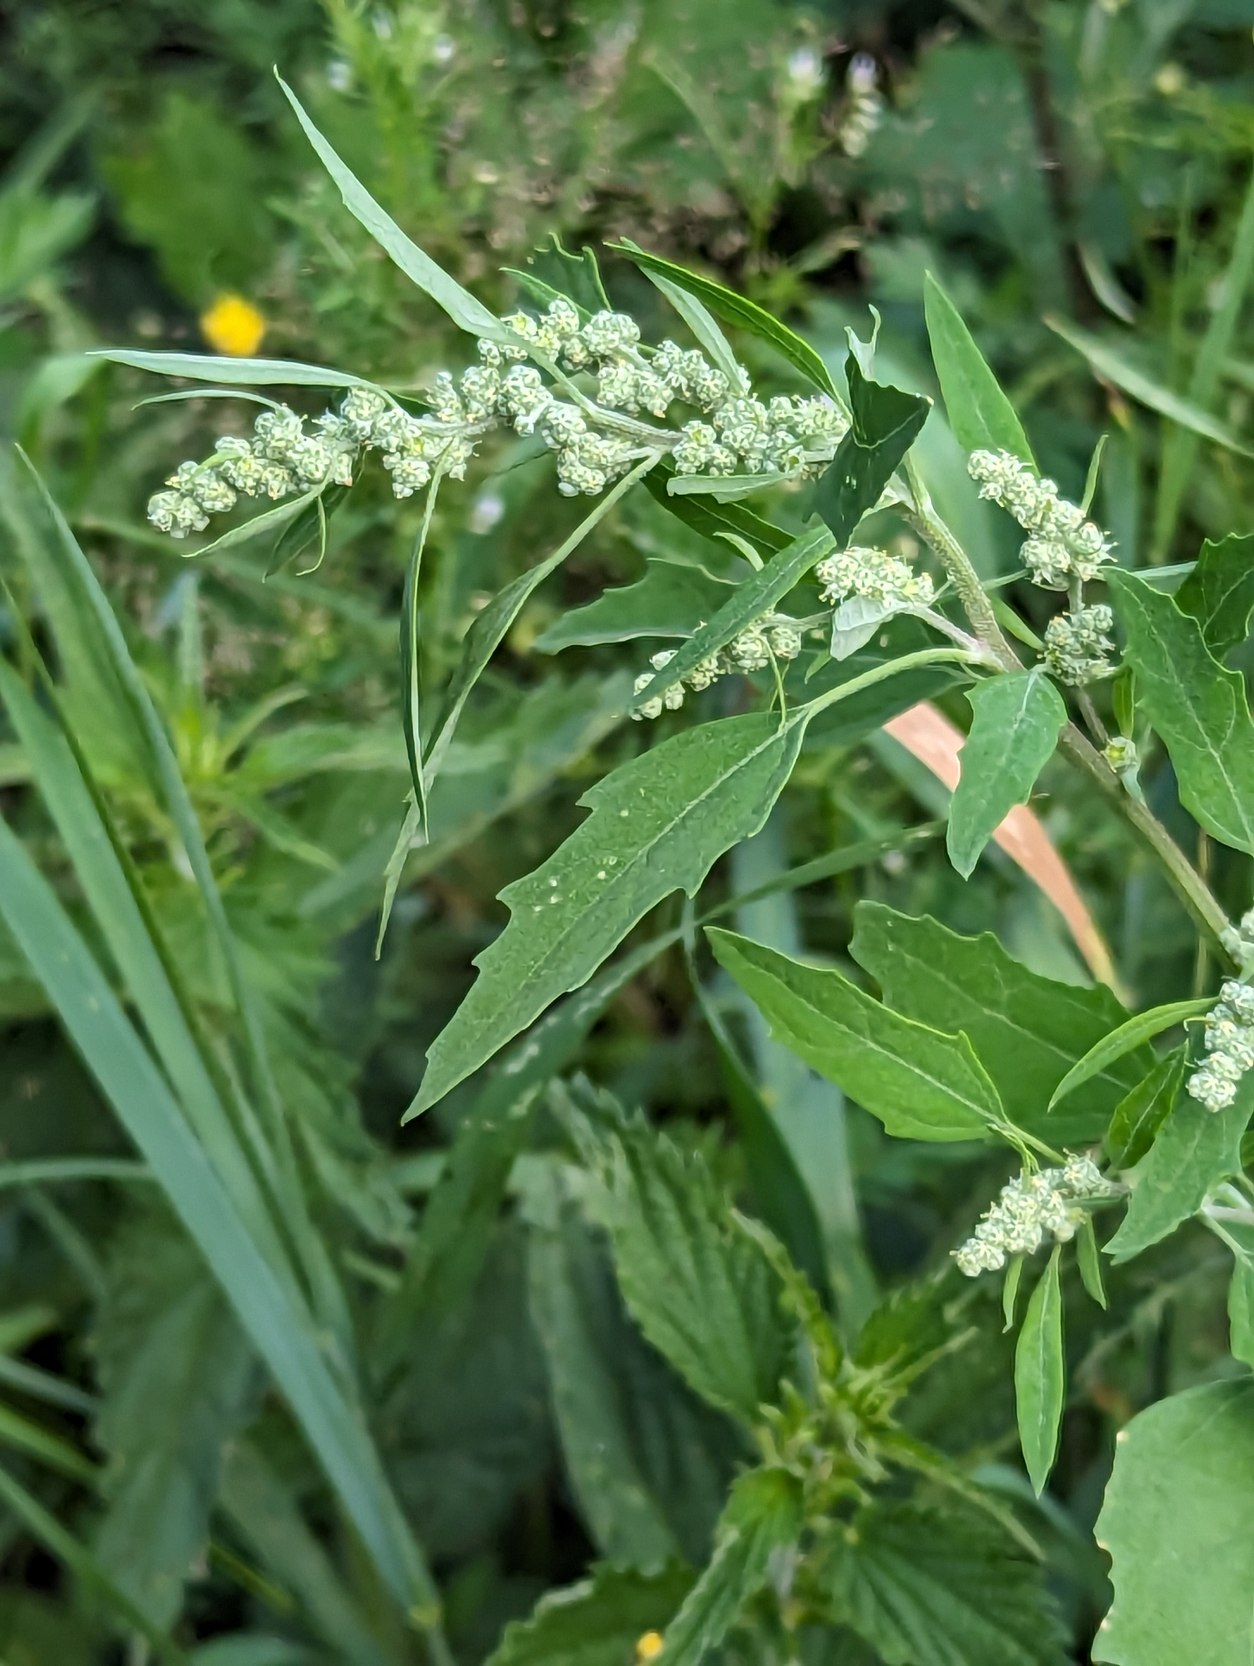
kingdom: Plantae
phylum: Tracheophyta
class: Magnoliopsida
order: Caryophyllales
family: Amaranthaceae
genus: Chenopodium
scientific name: Chenopodium album
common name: Hvidmelet gåsefod
